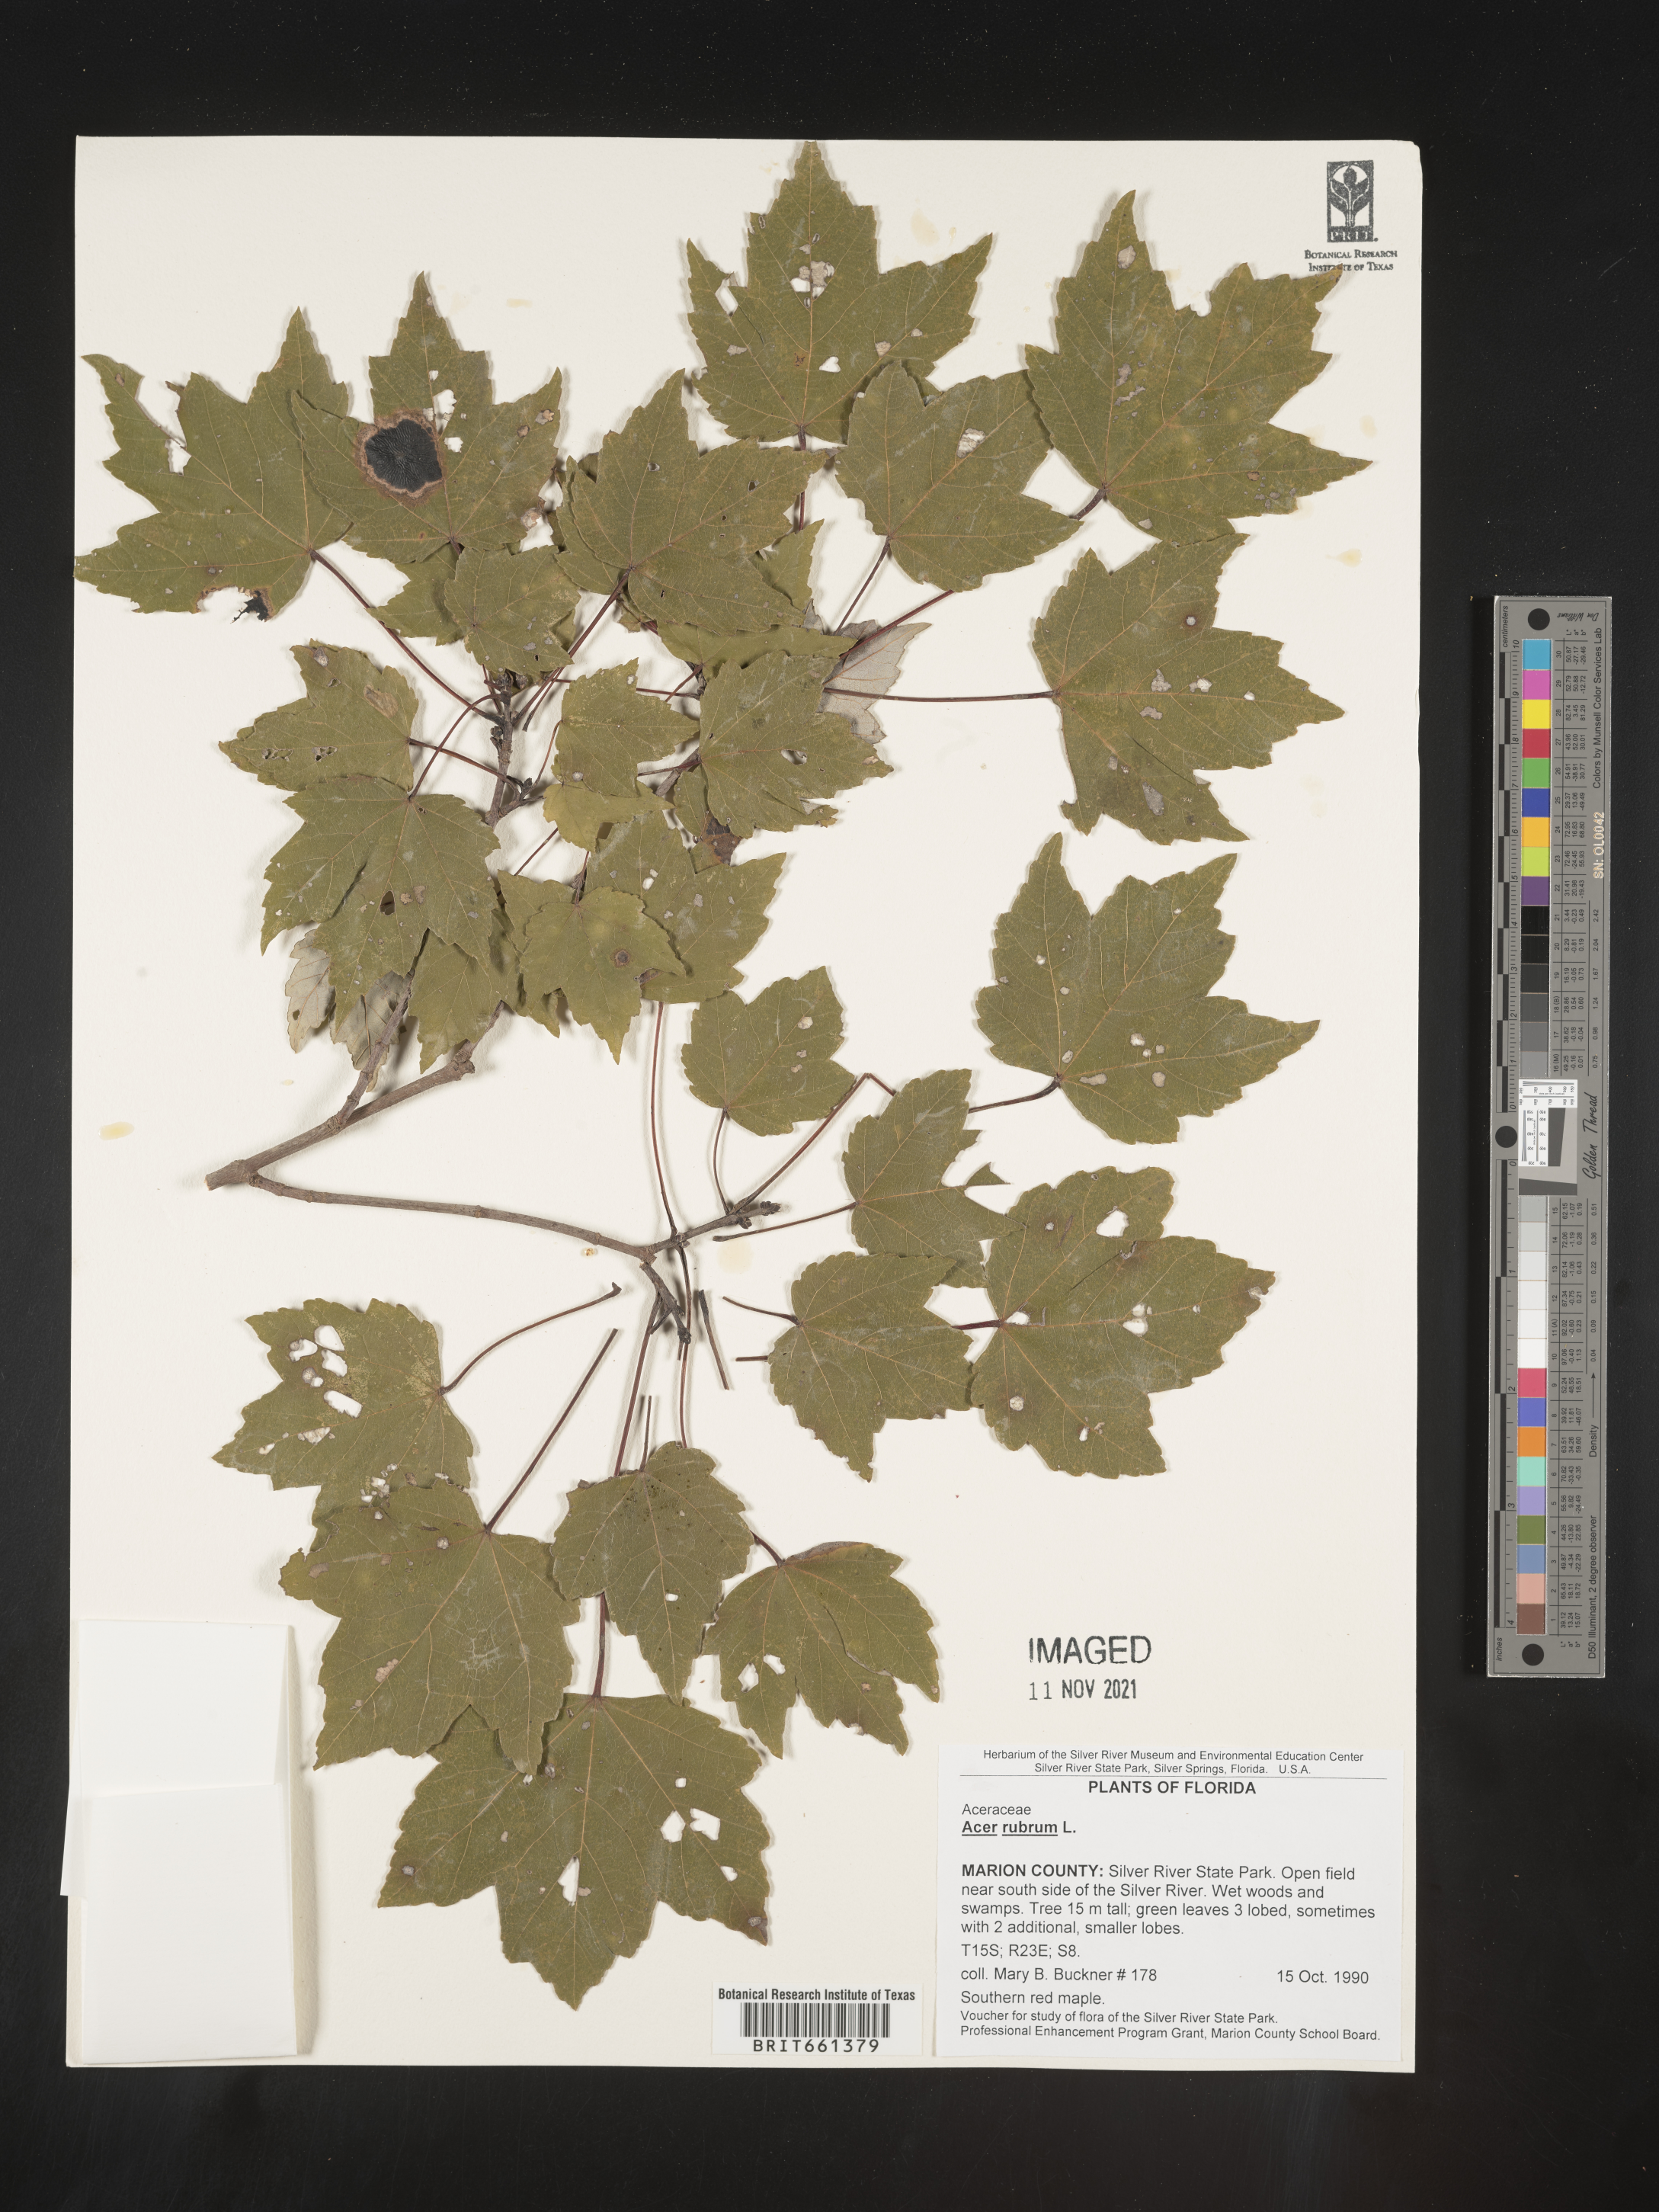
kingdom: Plantae
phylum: Tracheophyta
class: Magnoliopsida
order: Sapindales
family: Sapindaceae
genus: Acer
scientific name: Acer rubrum
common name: Red maple
